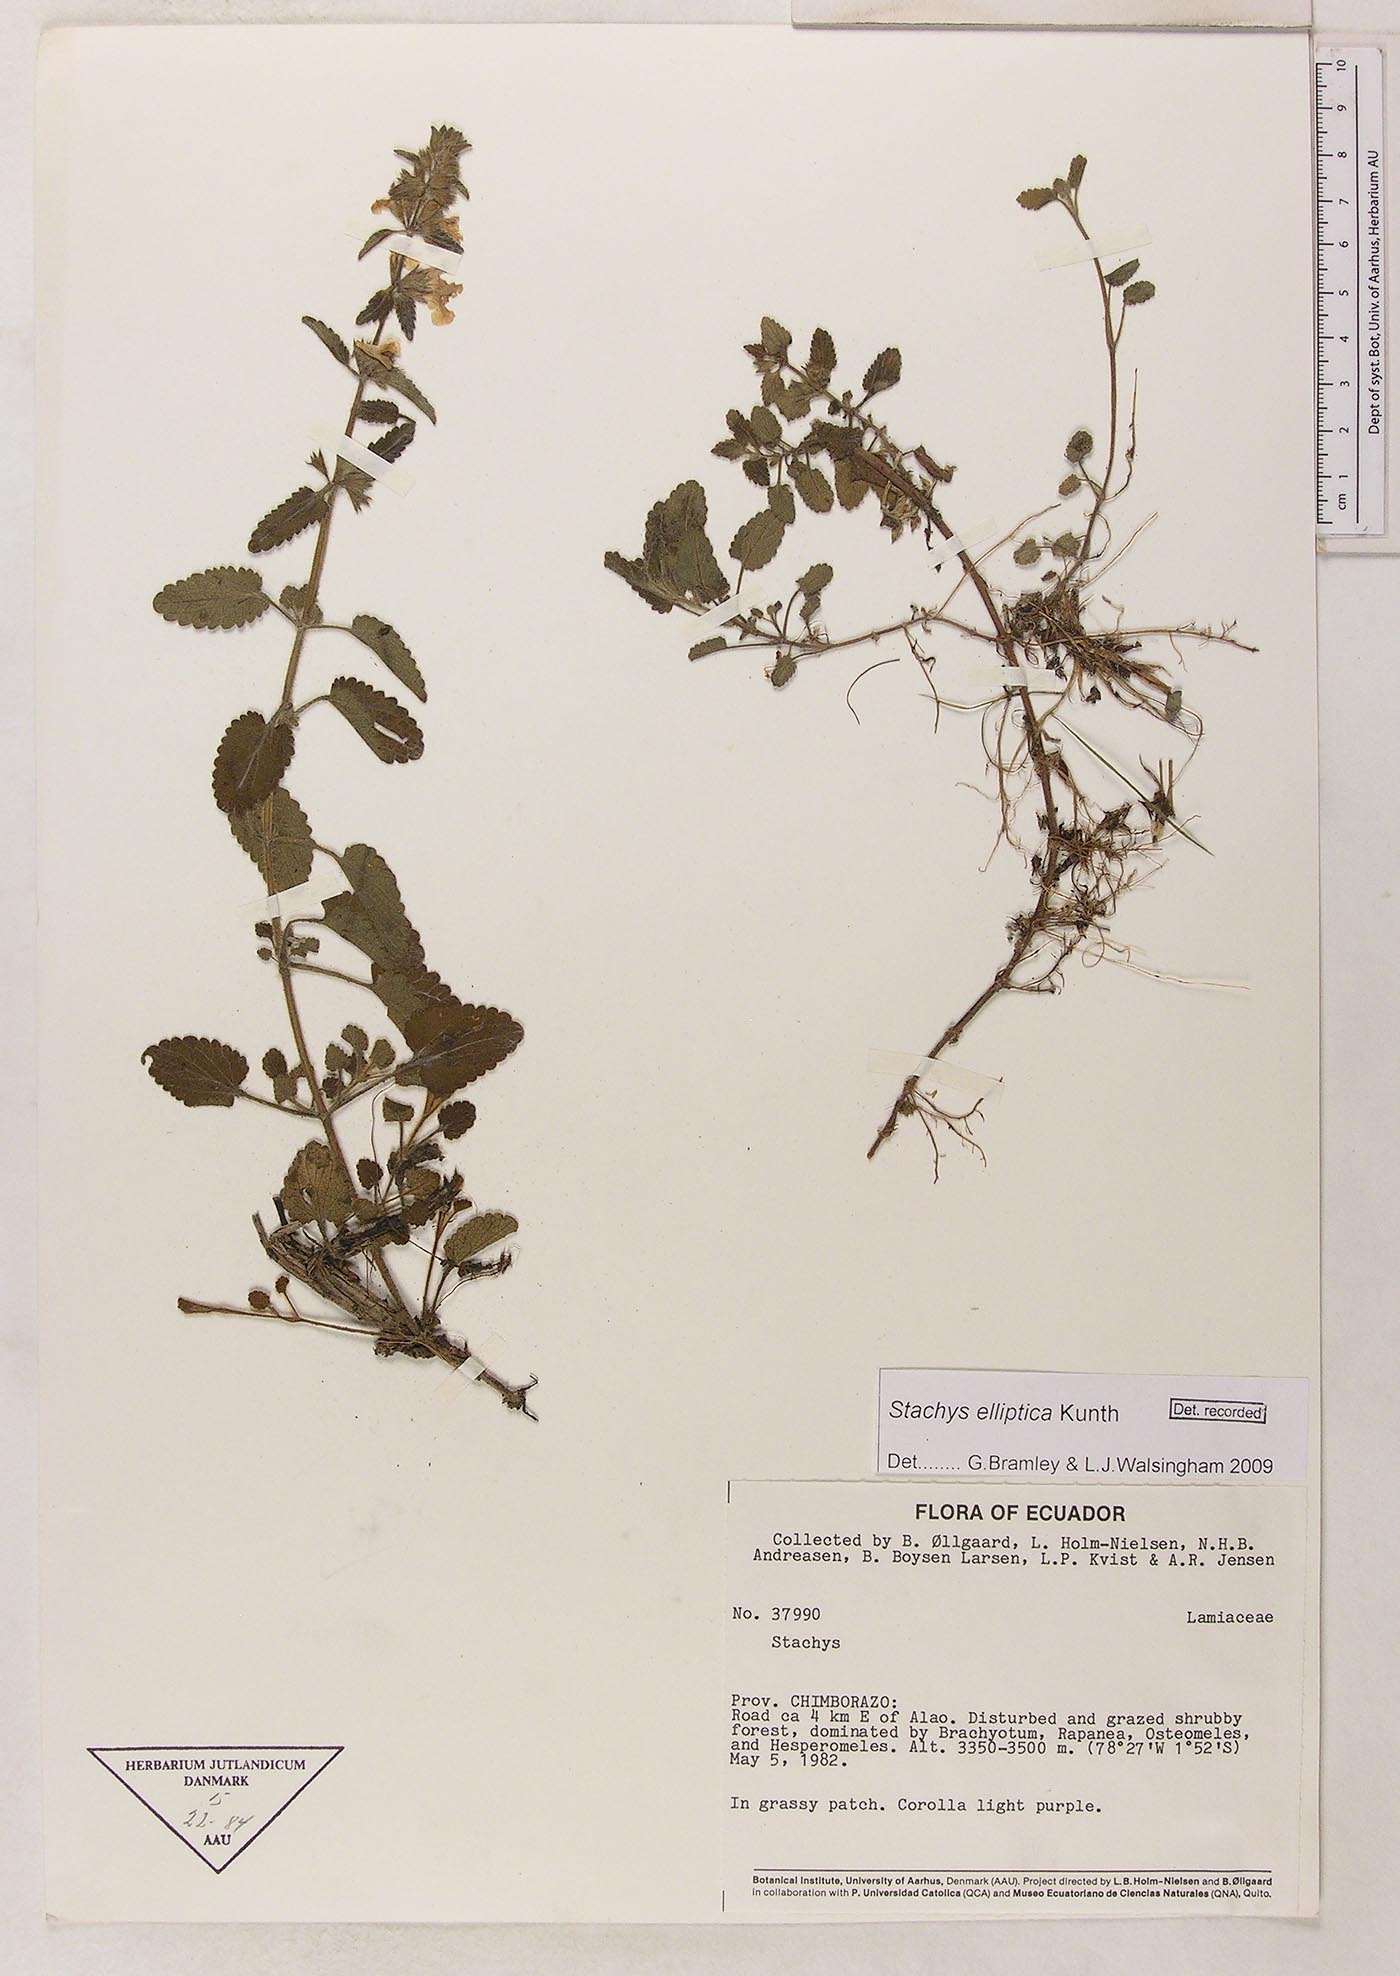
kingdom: Plantae
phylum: Tracheophyta
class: Magnoliopsida
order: Lamiales
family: Lamiaceae
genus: Stachys
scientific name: Stachys elliptica
